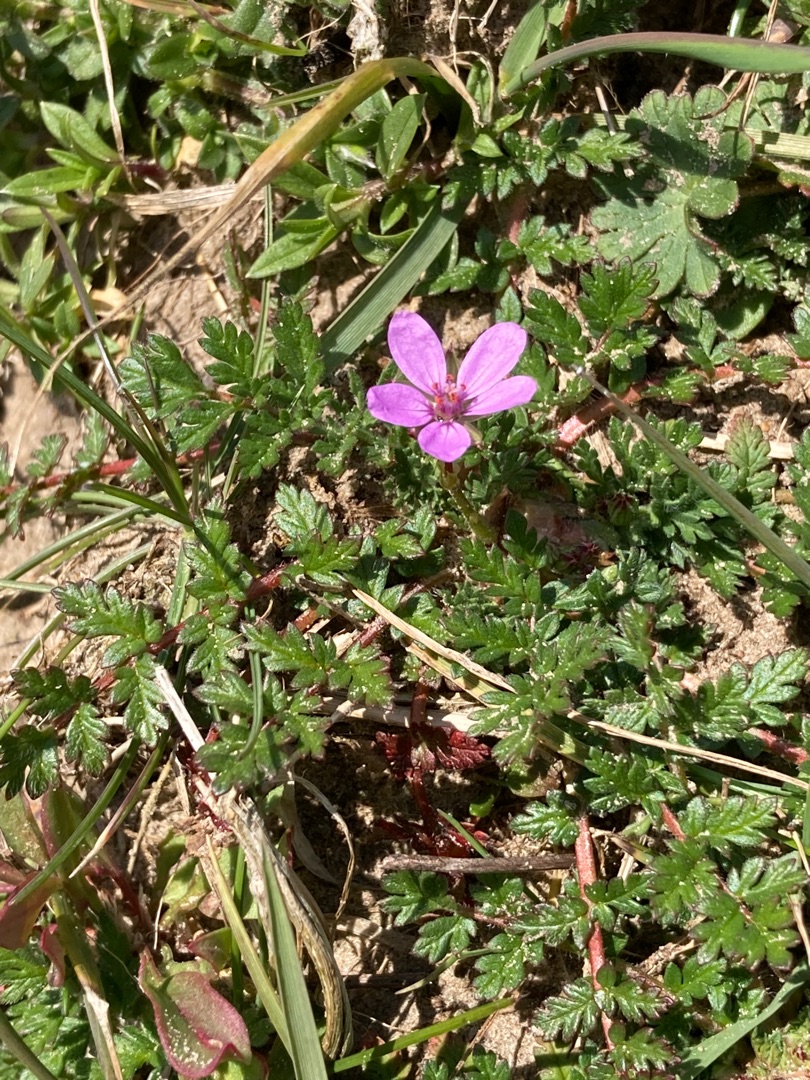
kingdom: Plantae
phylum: Tracheophyta
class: Magnoliopsida
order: Geraniales
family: Geraniaceae
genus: Erodium
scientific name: Erodium cicutarium
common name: Hejrenæb
